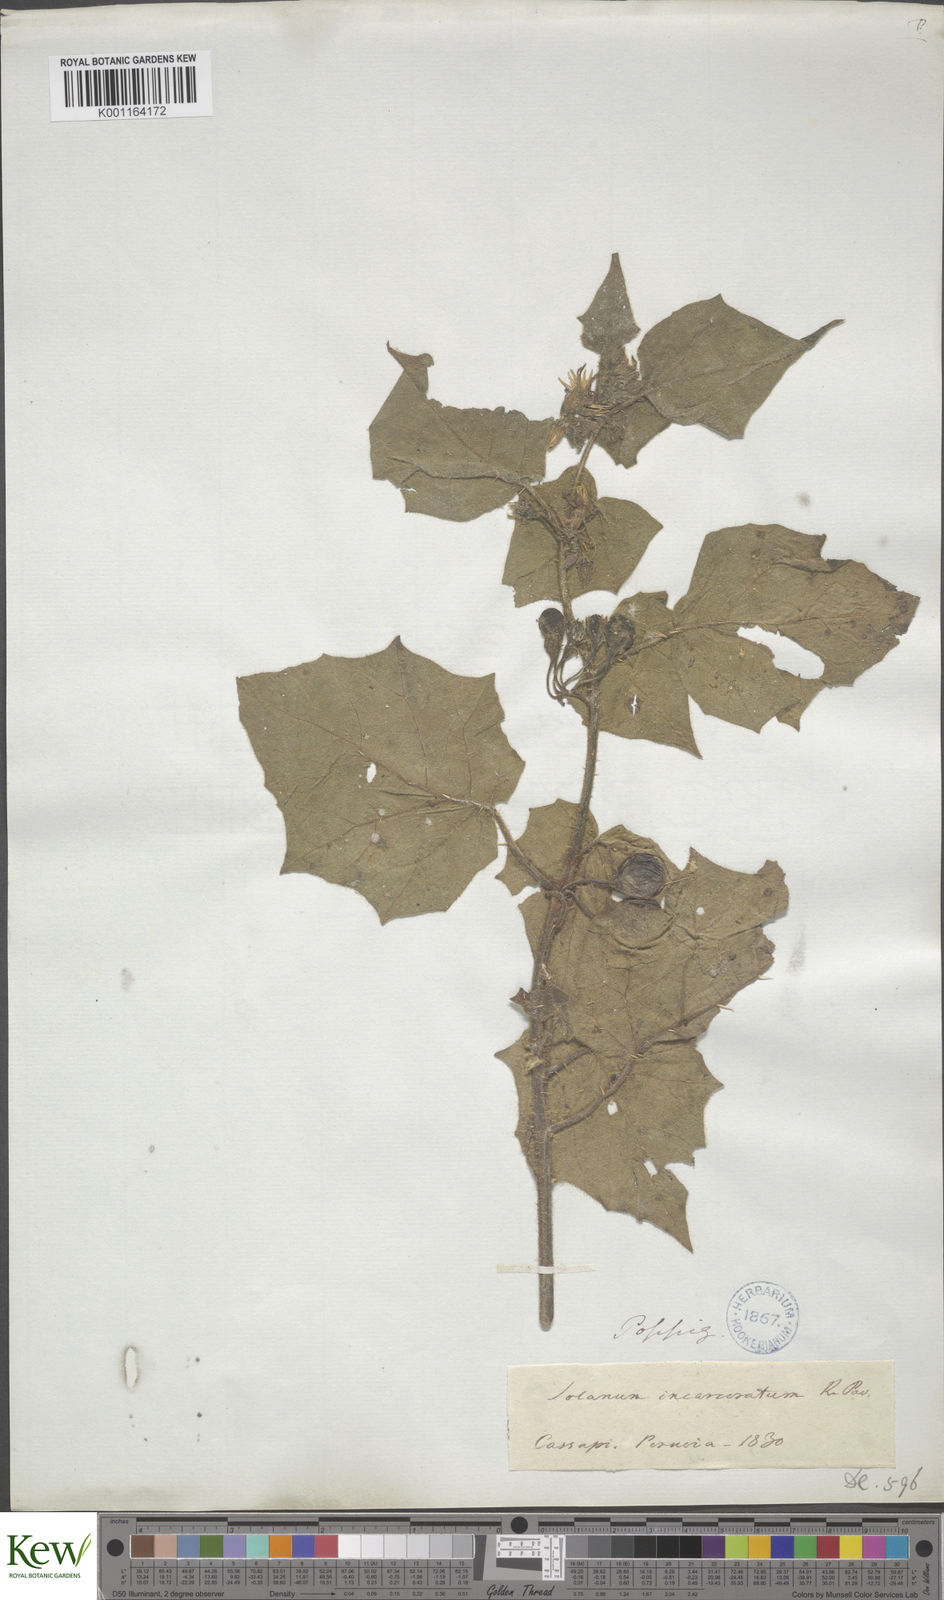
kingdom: Plantae
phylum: Tracheophyta
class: Magnoliopsida
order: Solanales
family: Solanaceae
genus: Solanum
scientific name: Solanum incarceratum
